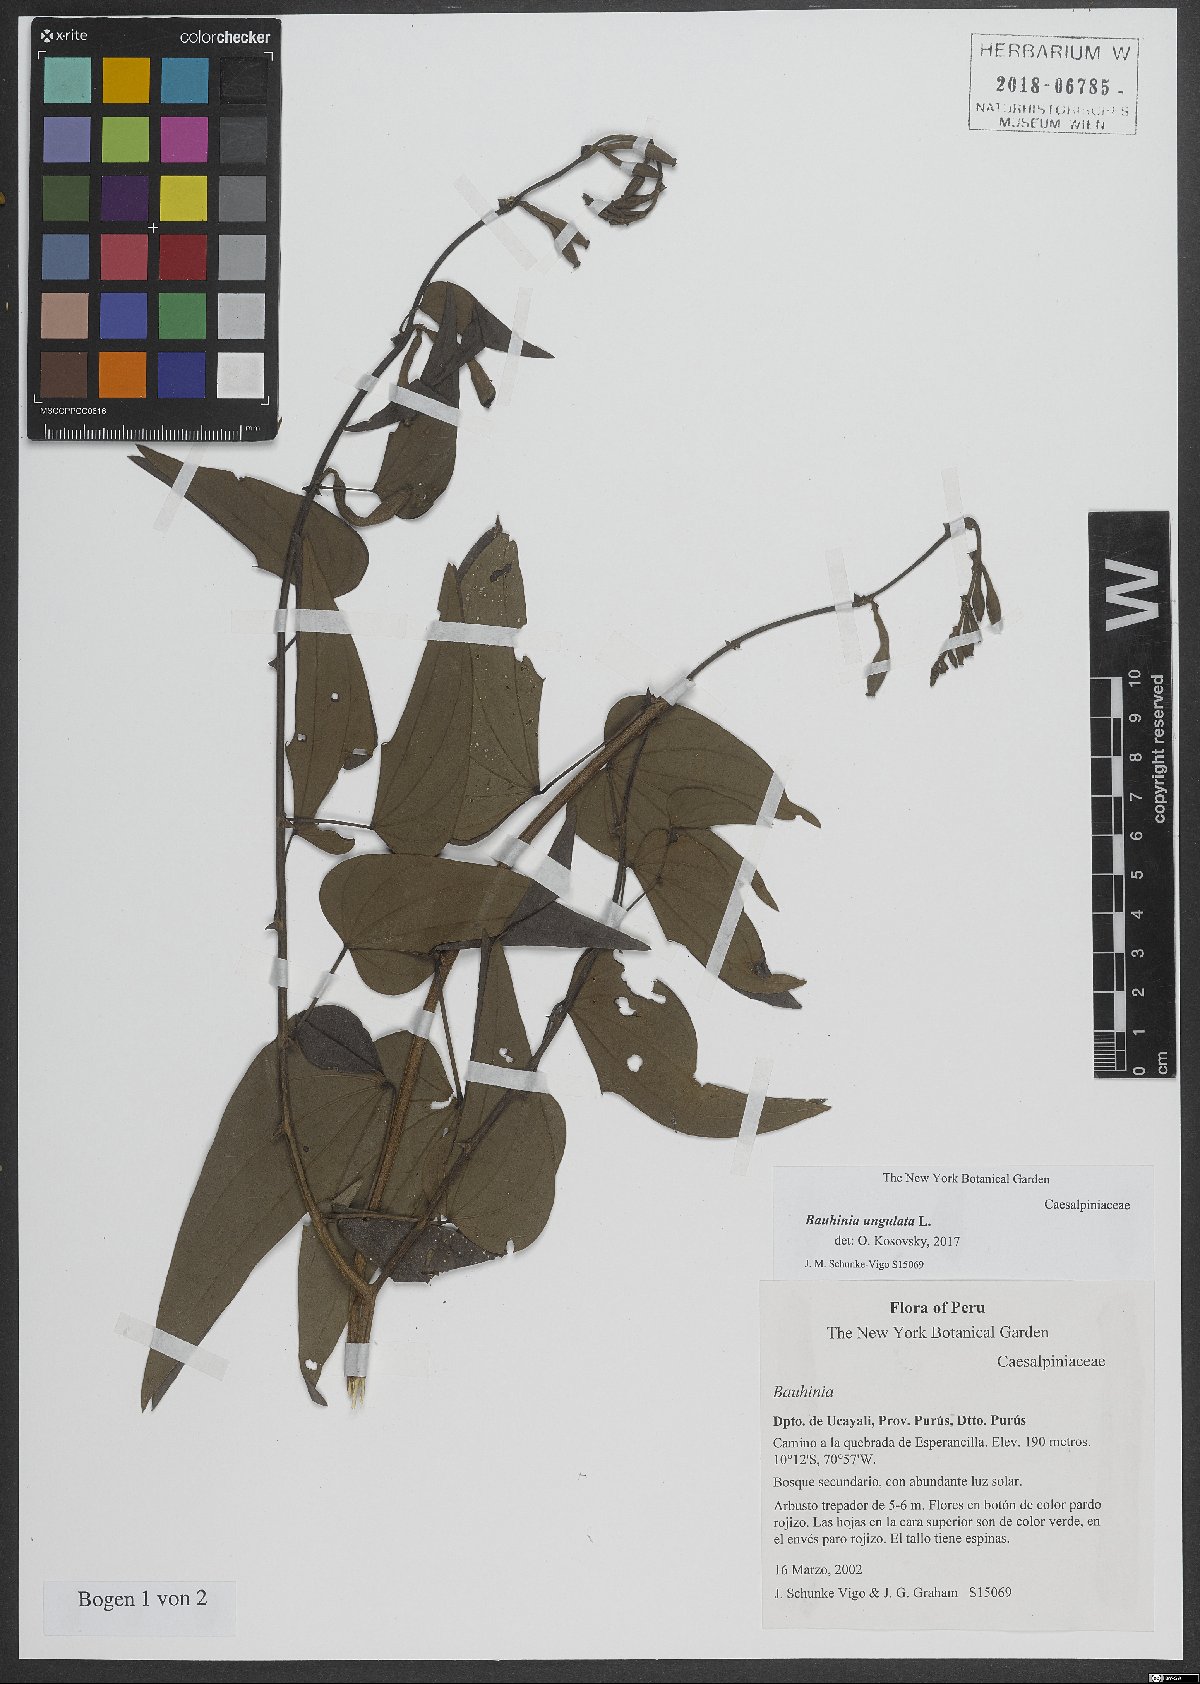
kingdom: Plantae
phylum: Tracheophyta
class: Magnoliopsida
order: Fabales
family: Fabaceae
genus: Bauhinia
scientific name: Bauhinia ungulata
